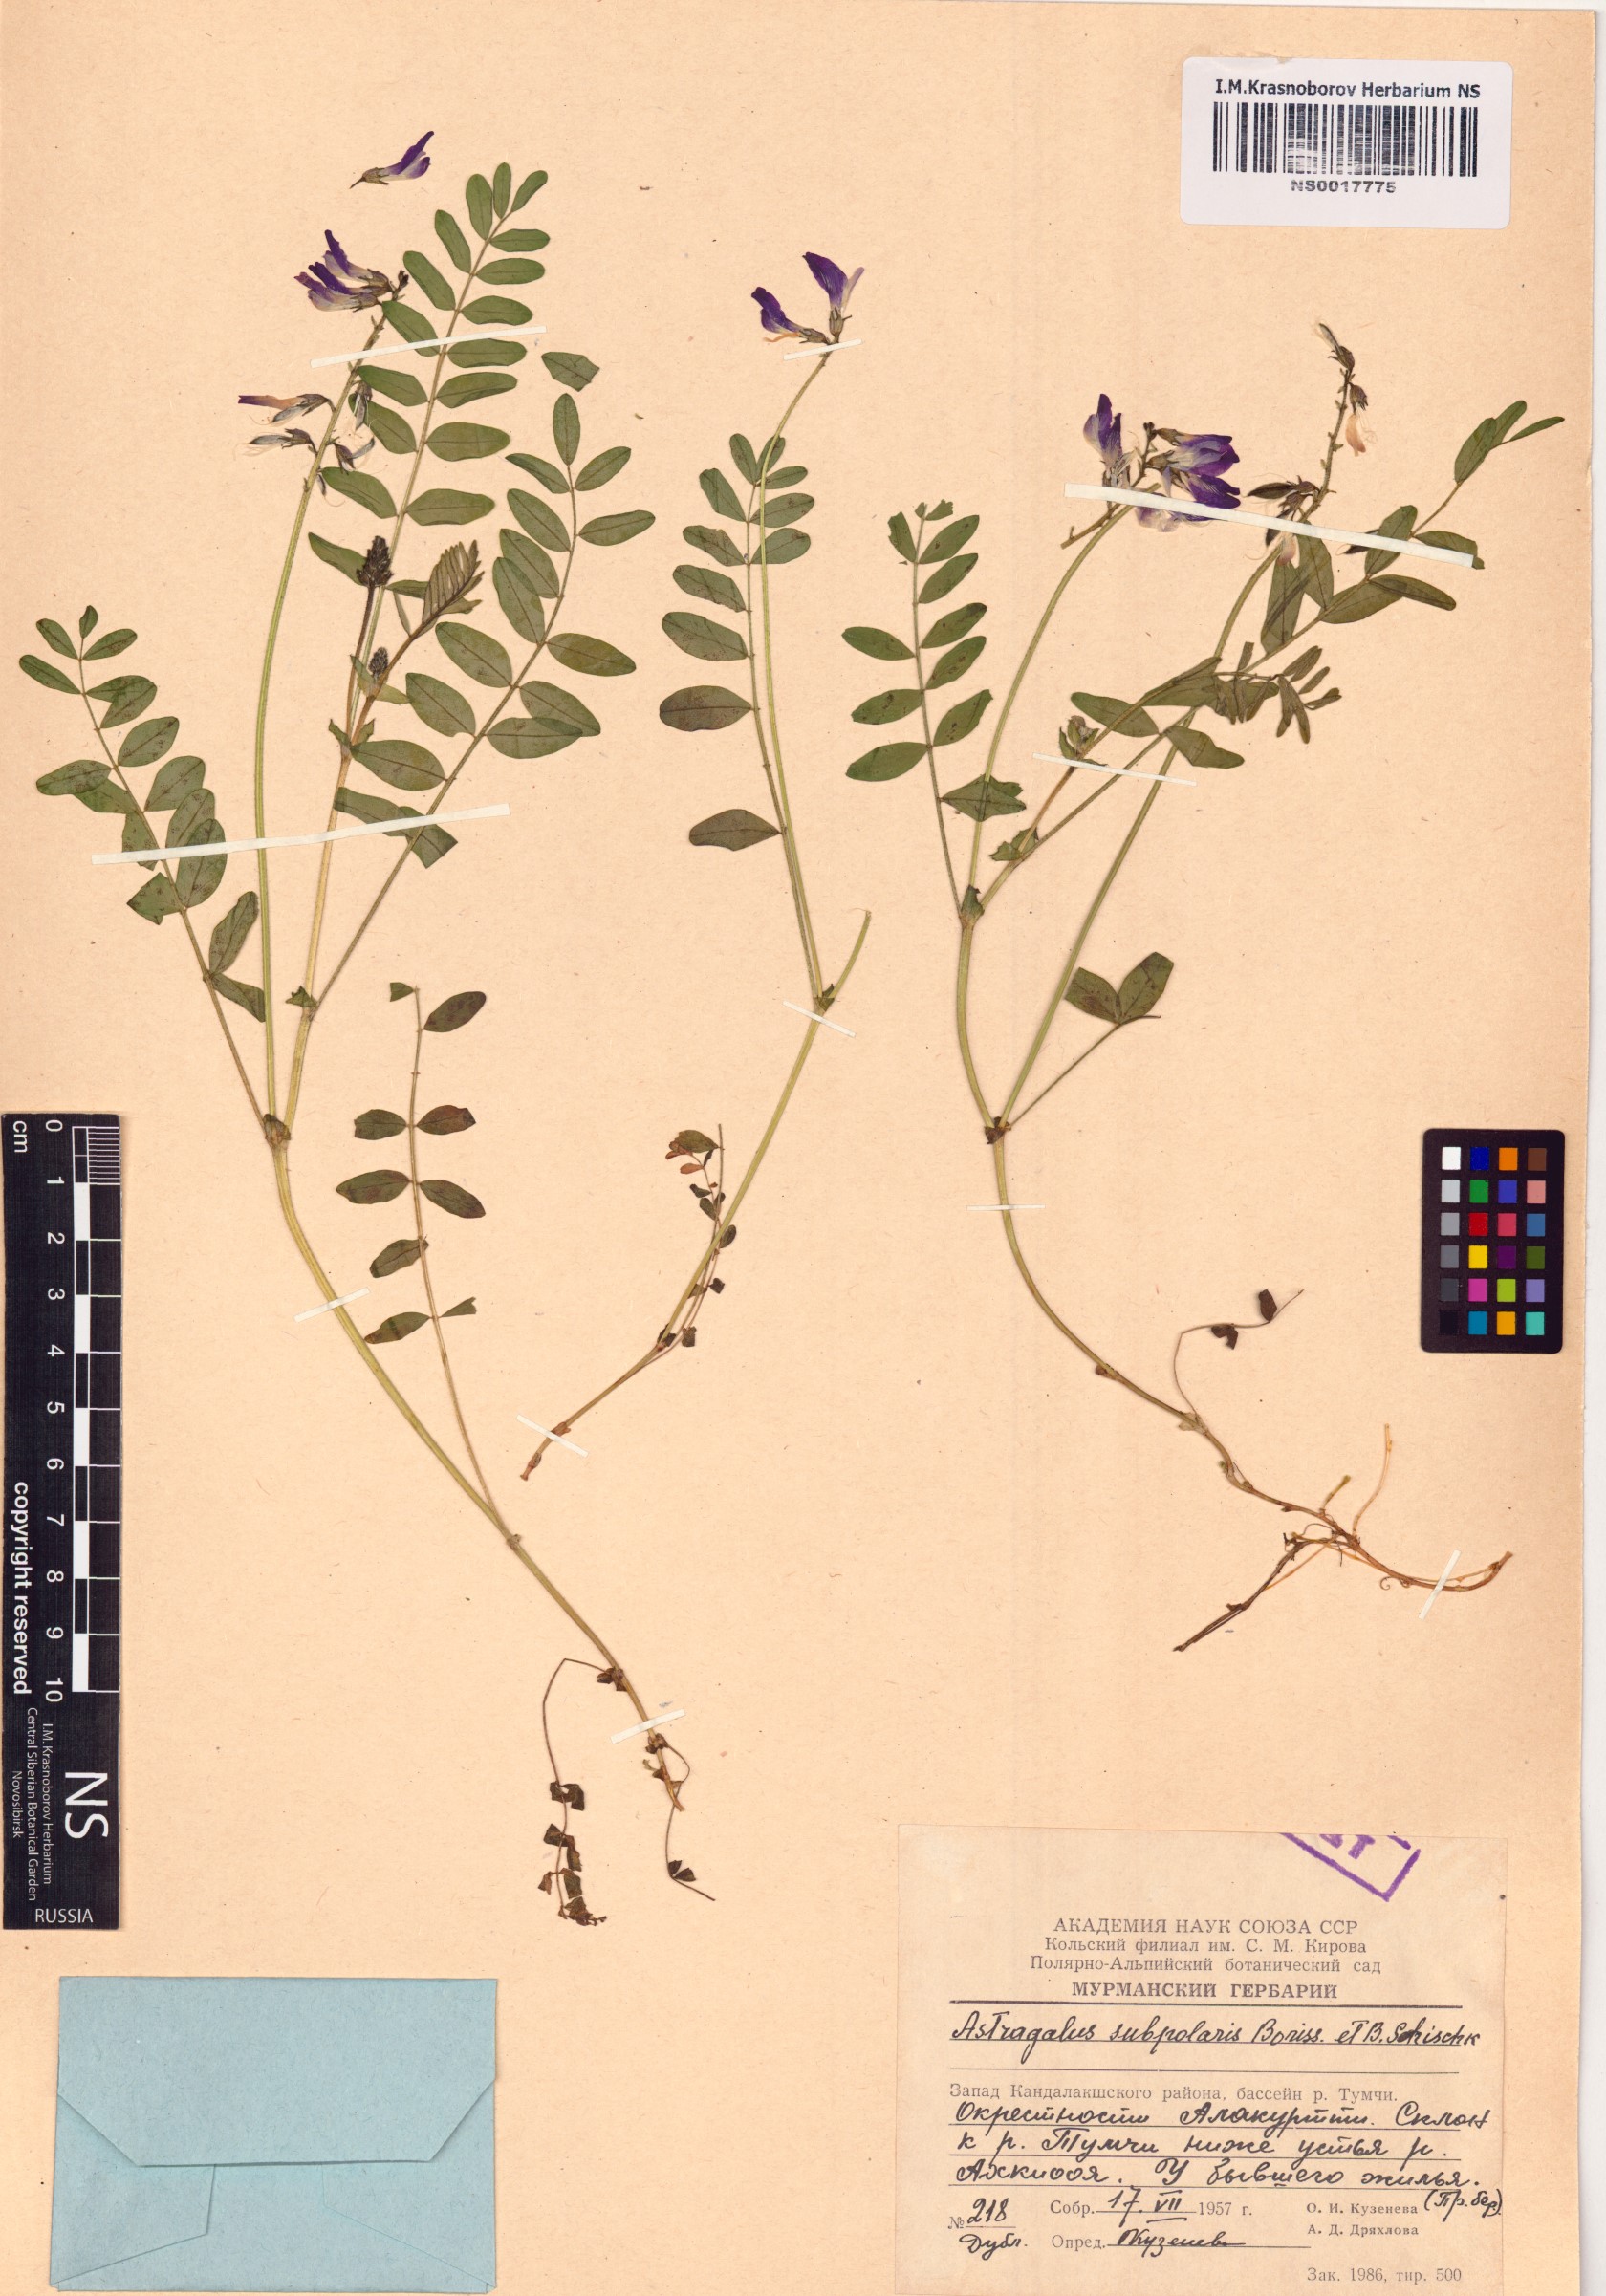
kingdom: Plantae
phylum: Tracheophyta
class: Magnoliopsida
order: Fabales
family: Fabaceae
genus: Astragalus
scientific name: Astragalus norvegicus
